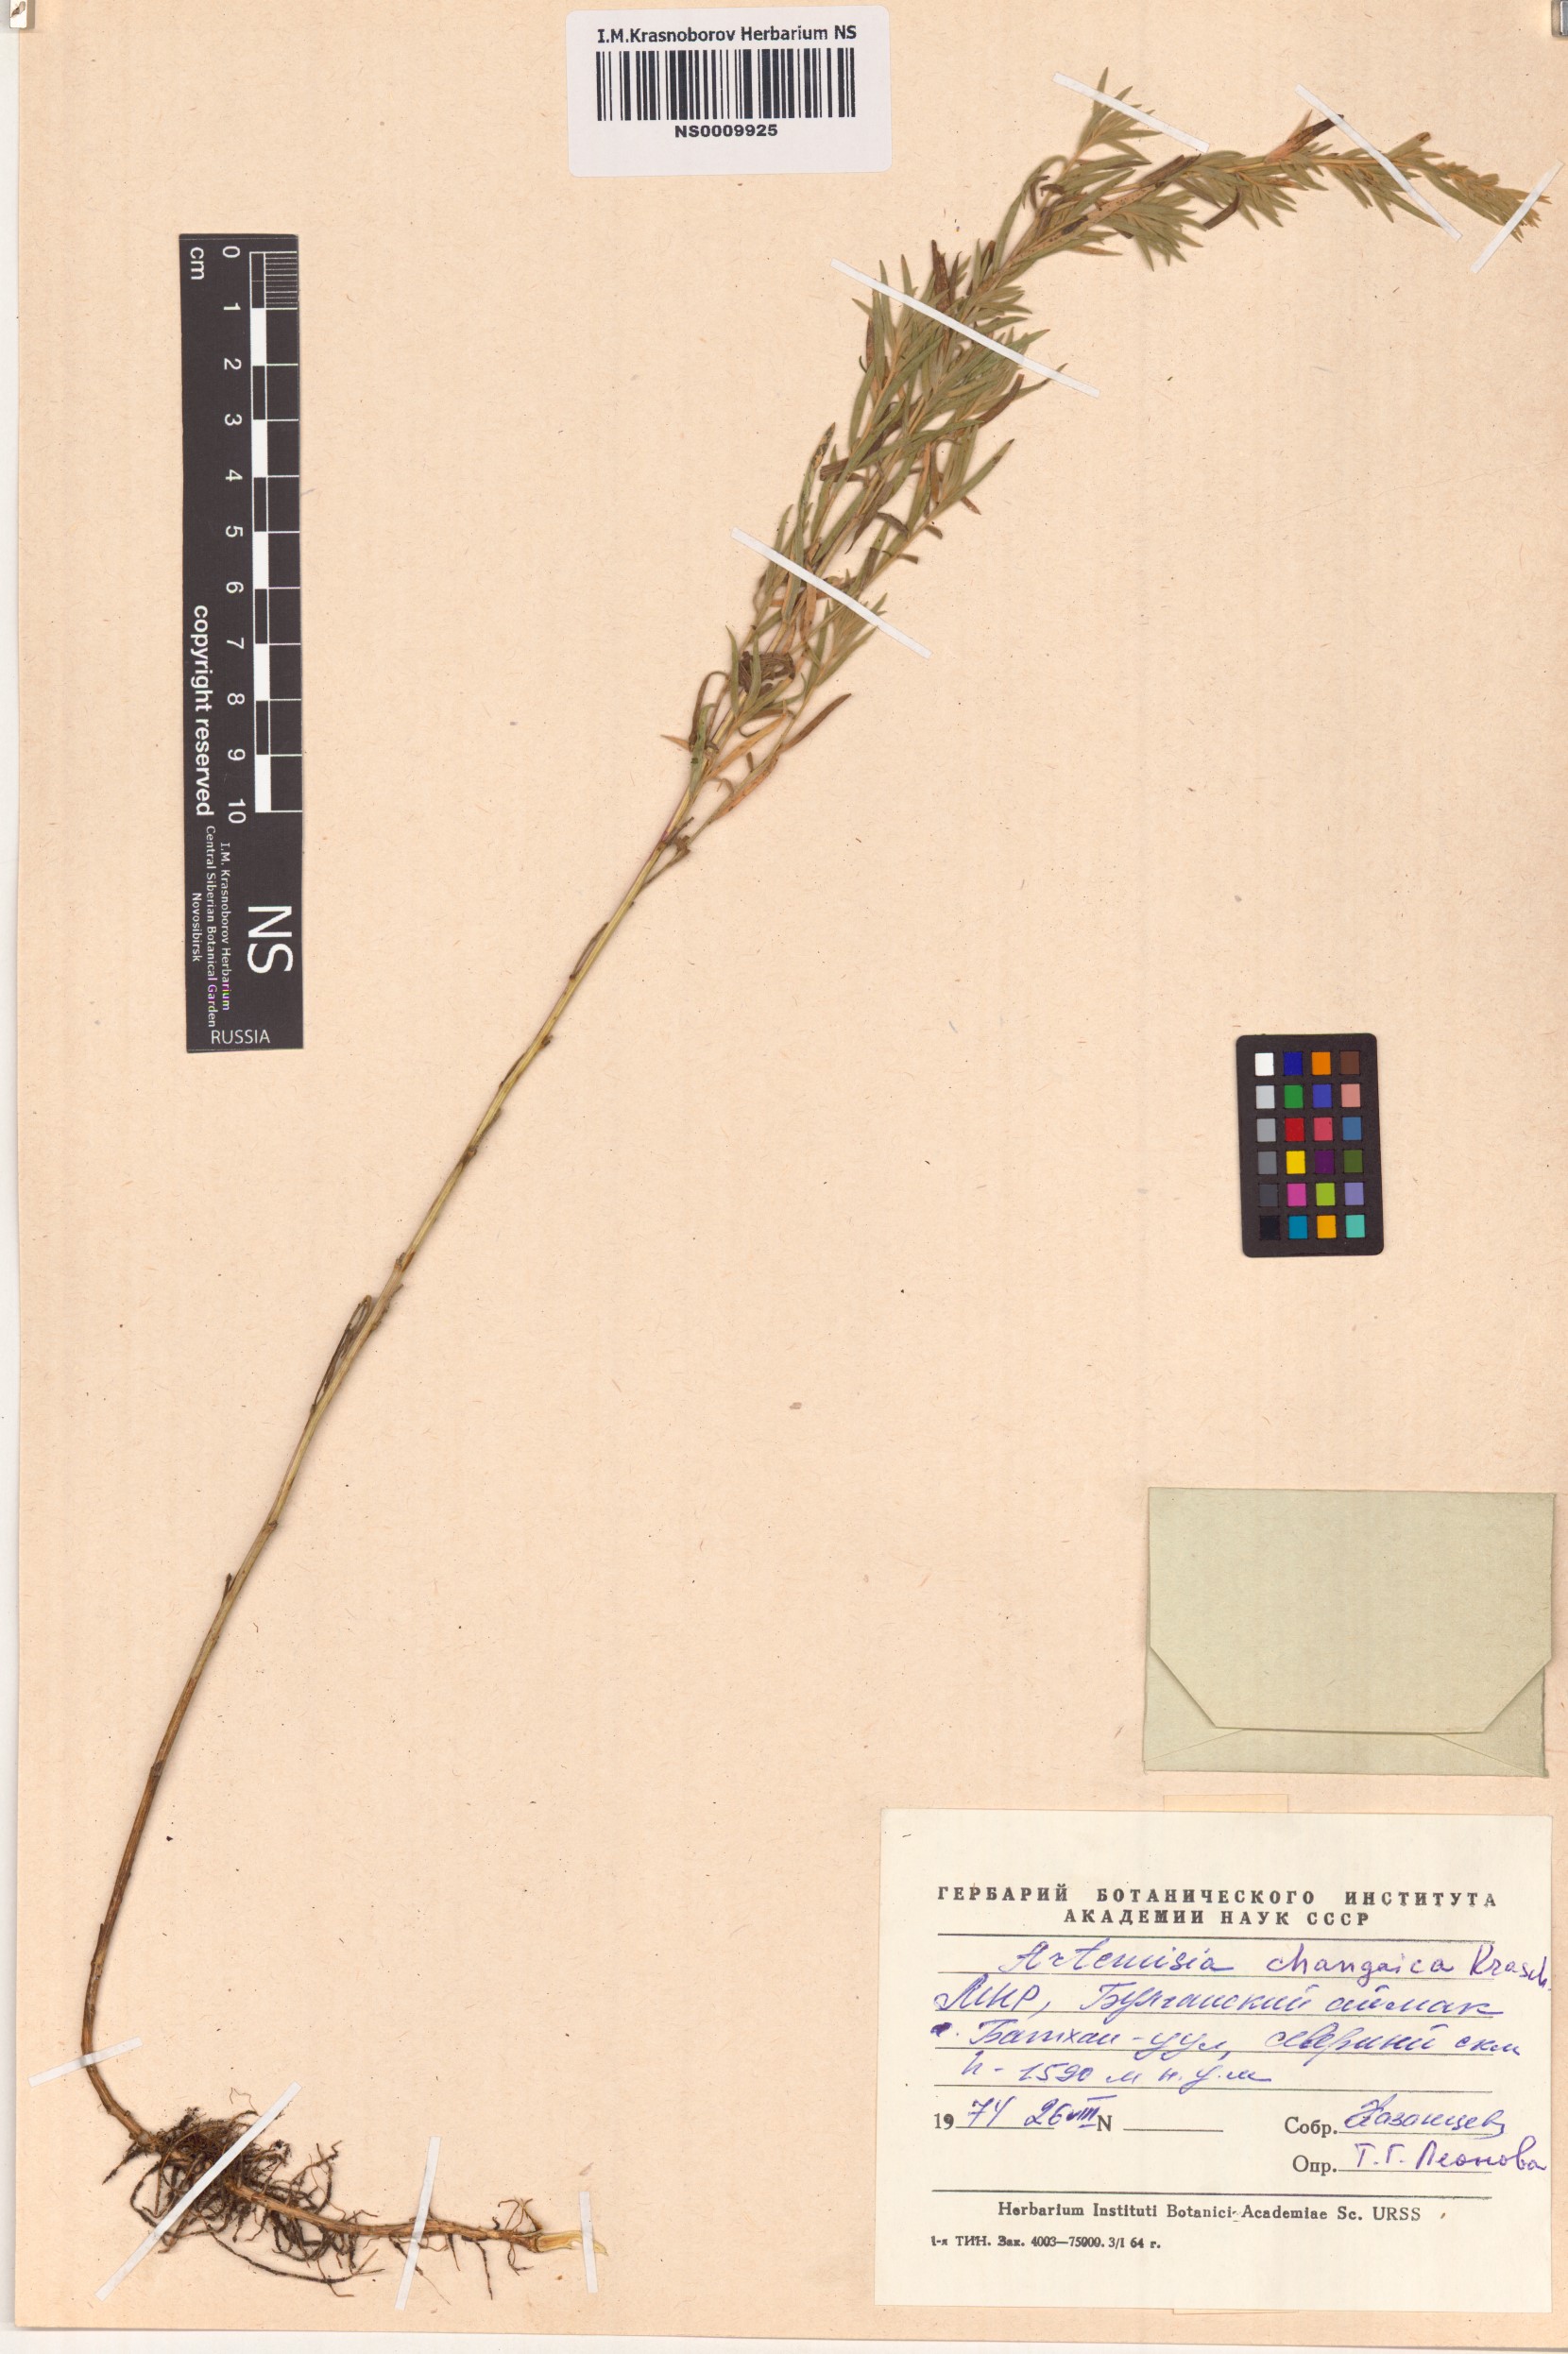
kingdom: Plantae
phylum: Tracheophyta
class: Magnoliopsida
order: Asterales
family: Asteraceae
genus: Artemisia
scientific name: Artemisia dracunculus
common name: Tarragon
